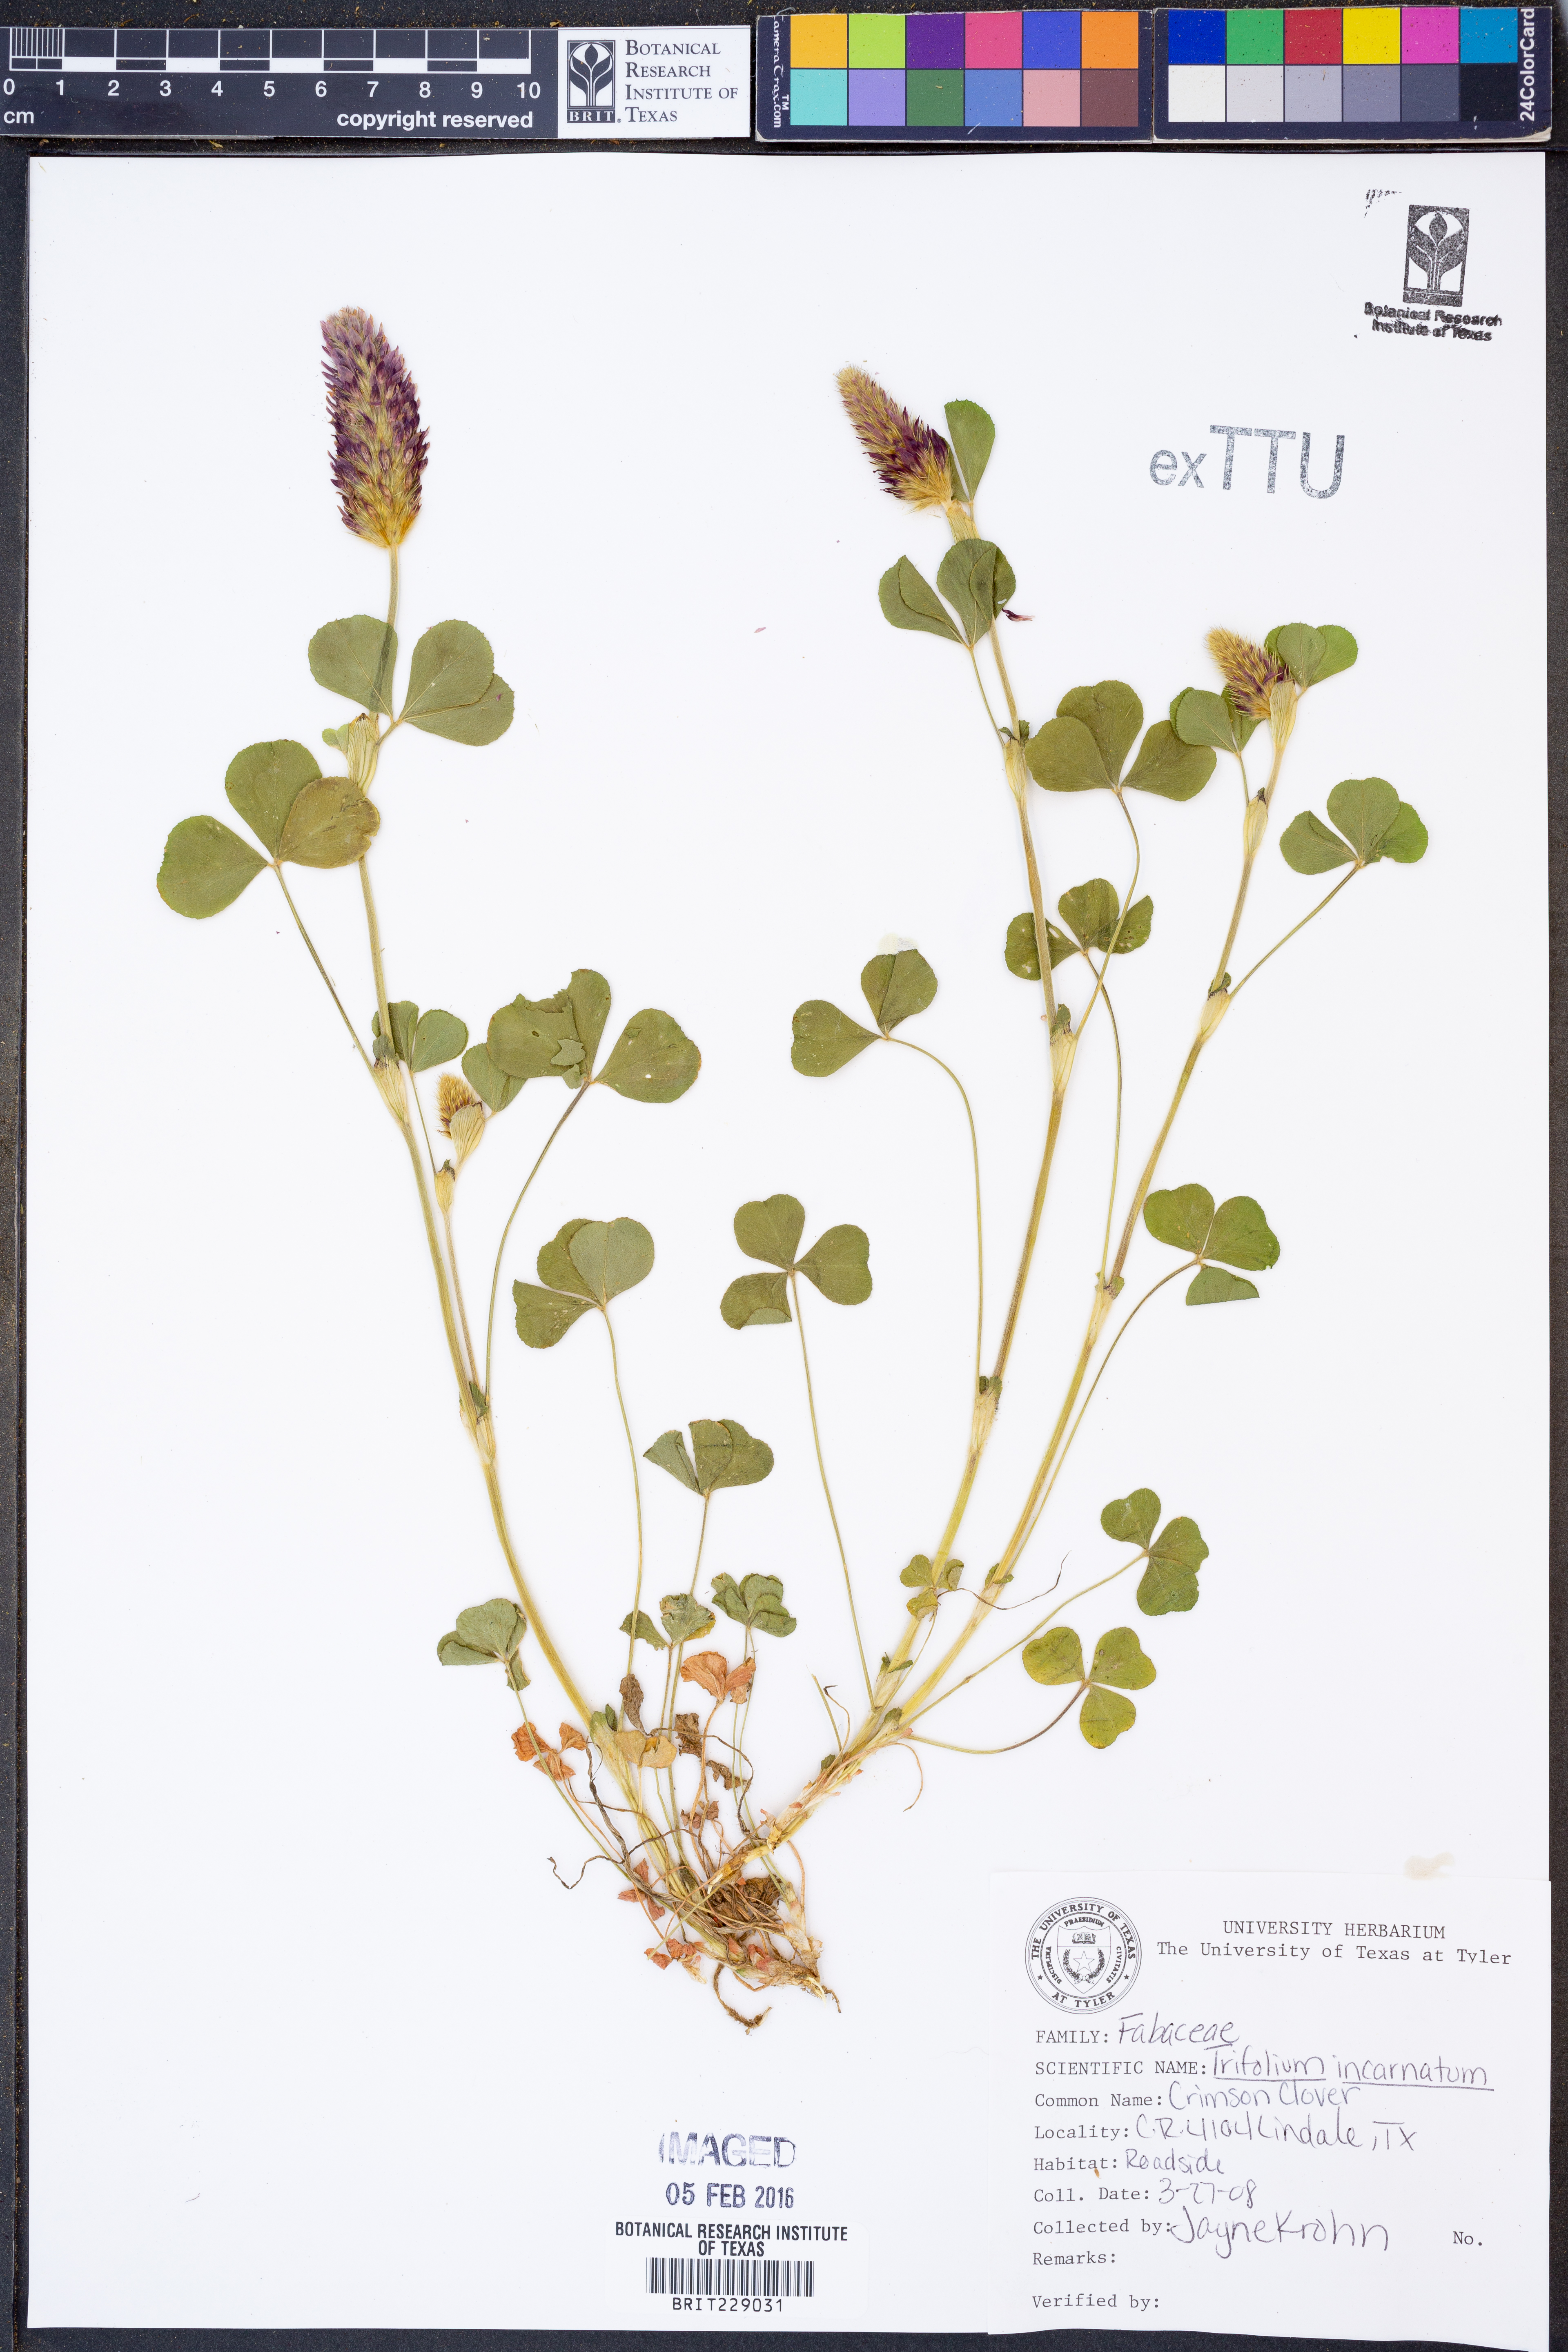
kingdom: Plantae
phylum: Tracheophyta
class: Magnoliopsida
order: Fabales
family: Fabaceae
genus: Trifolium
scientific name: Trifolium incarnatum
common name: Crimson clover
